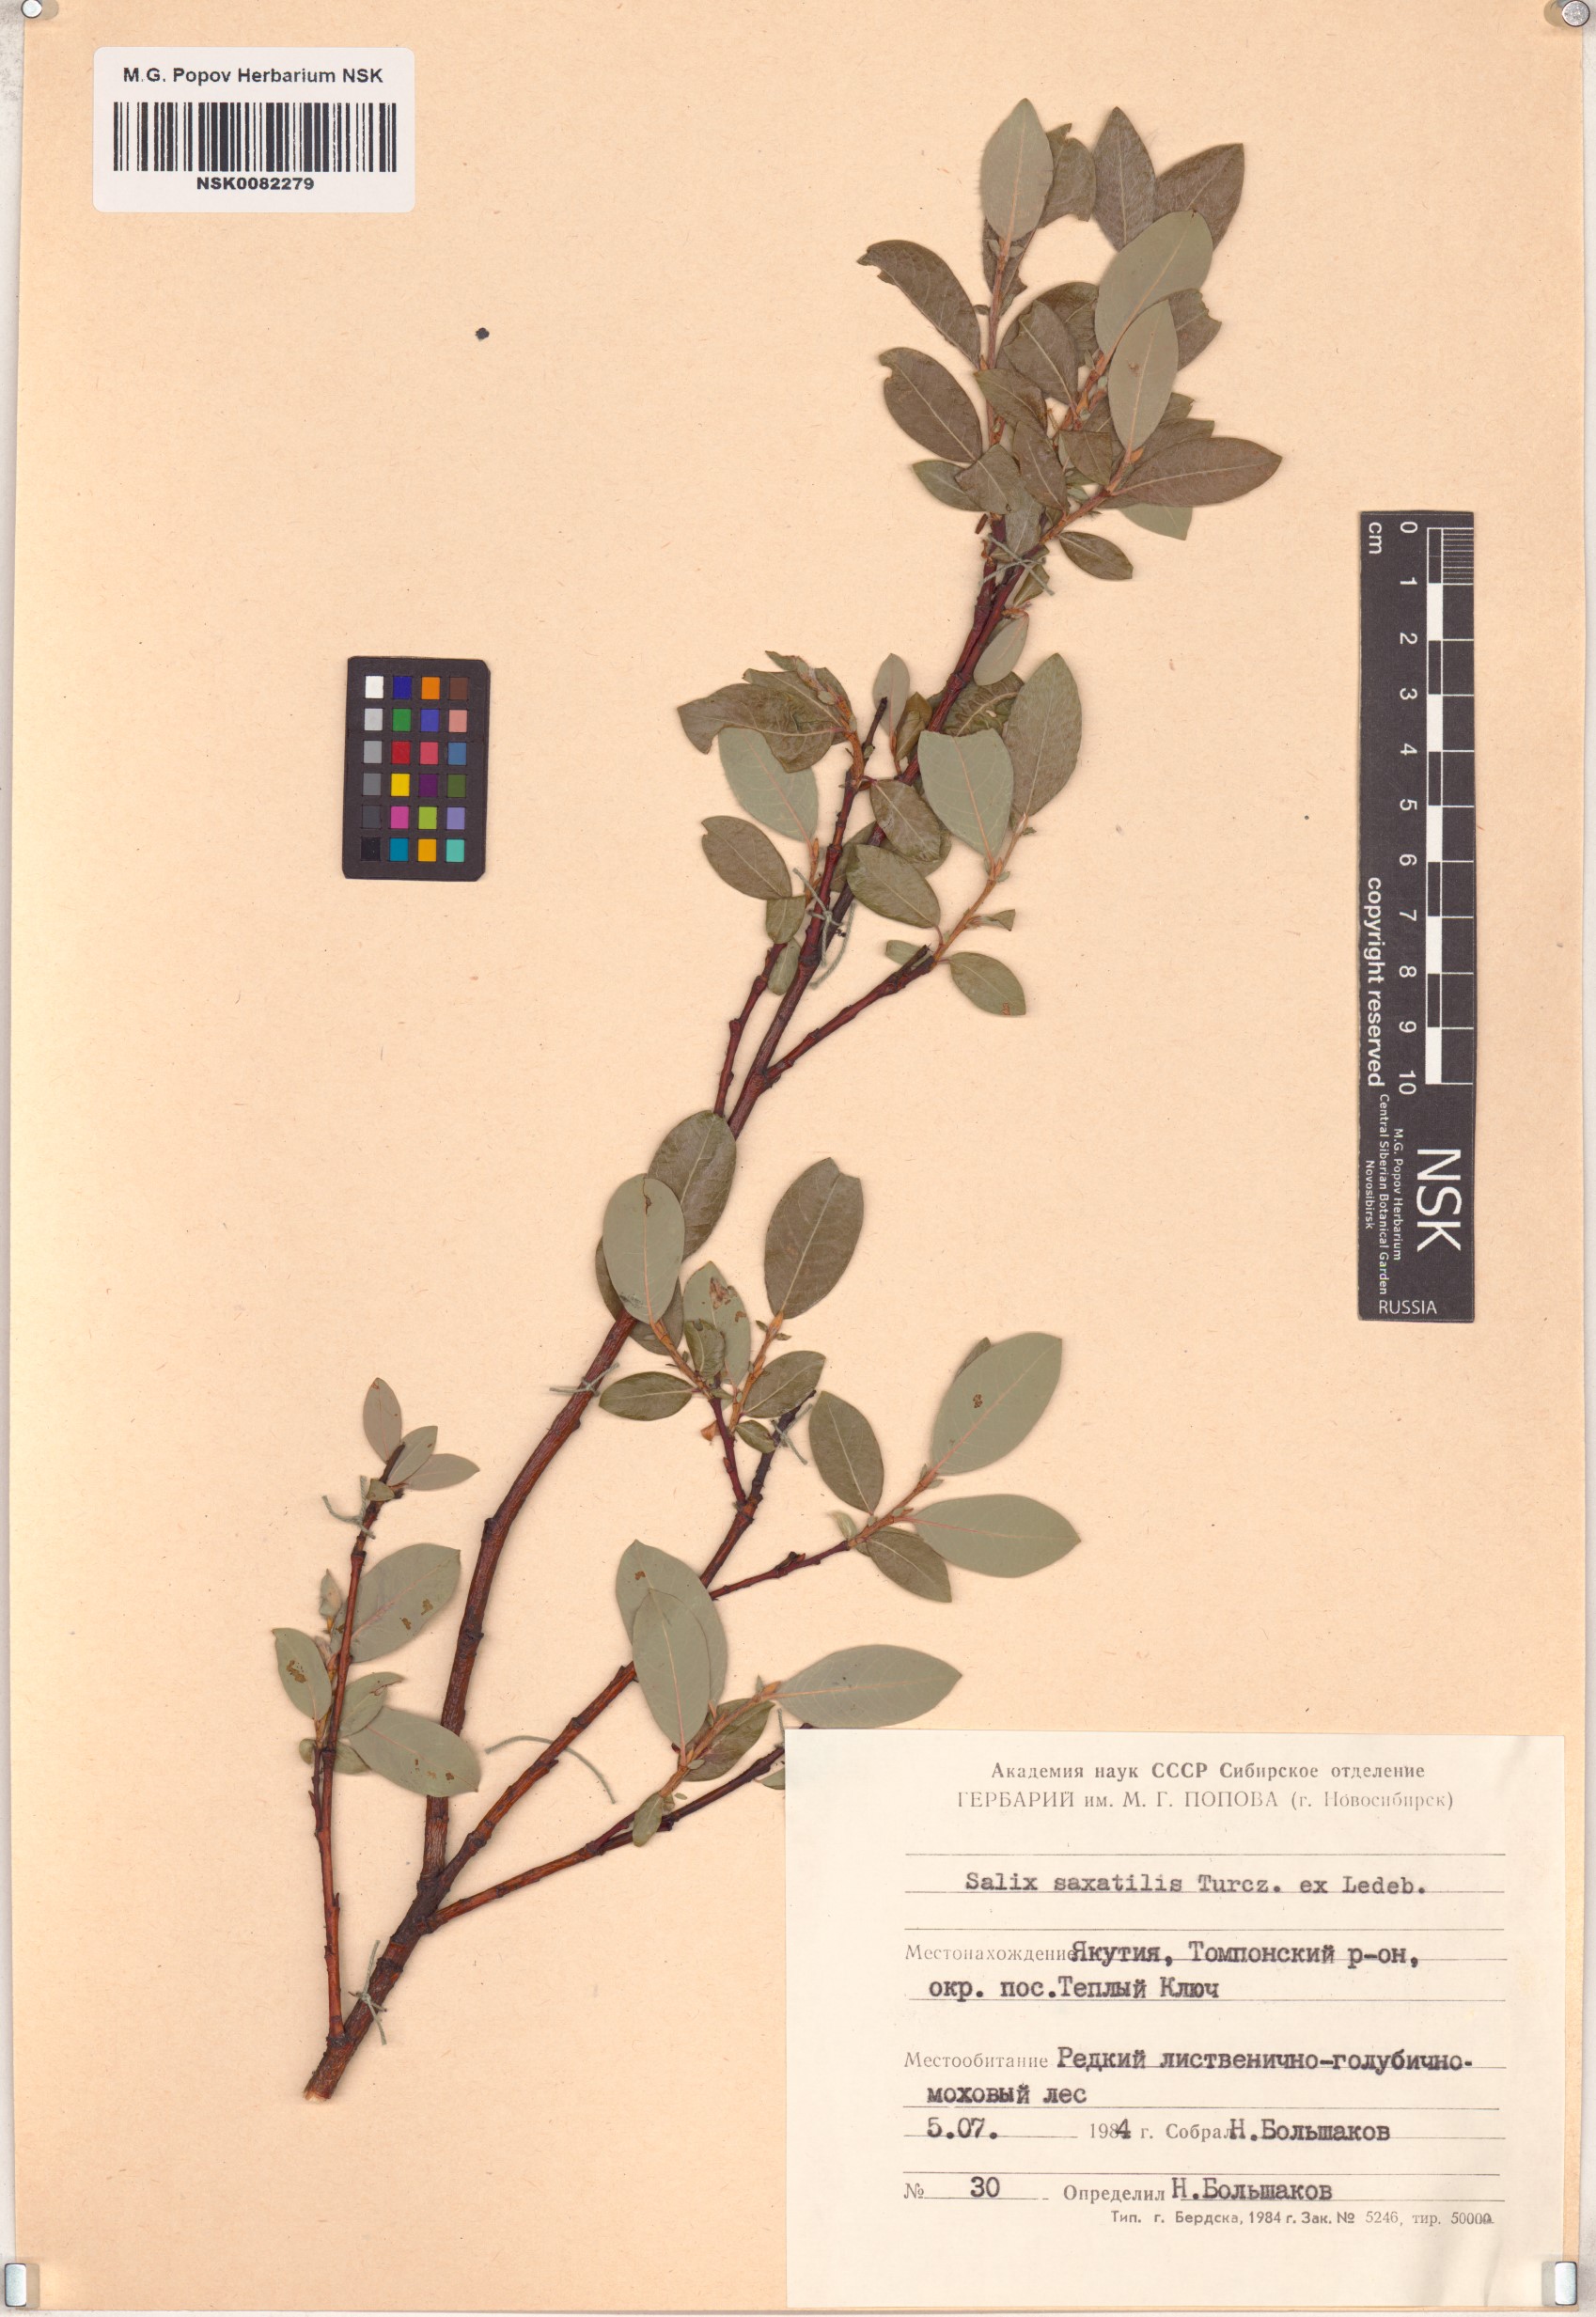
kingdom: Plantae
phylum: Tracheophyta
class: Magnoliopsida
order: Malpighiales
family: Salicaceae
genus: Salix
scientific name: Salix saxatilis
